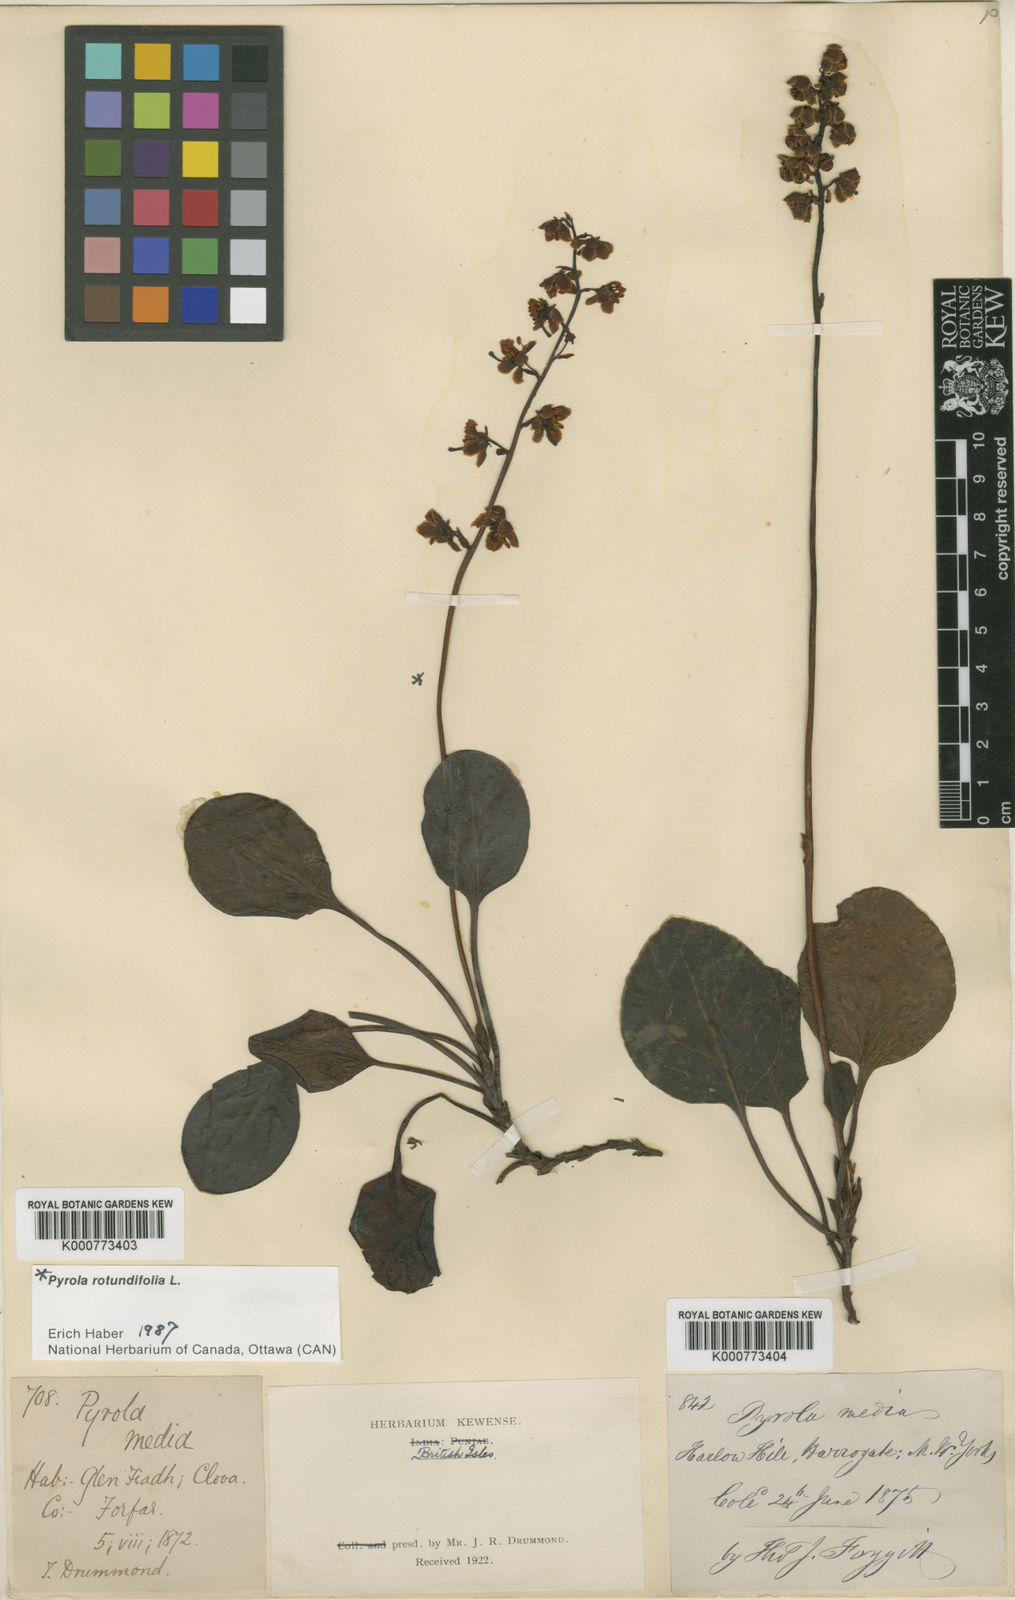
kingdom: Plantae
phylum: Tracheophyta
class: Magnoliopsida
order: Ericales
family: Ericaceae
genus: Pyrola
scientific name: Pyrola media
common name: Intermediate wintergreen
